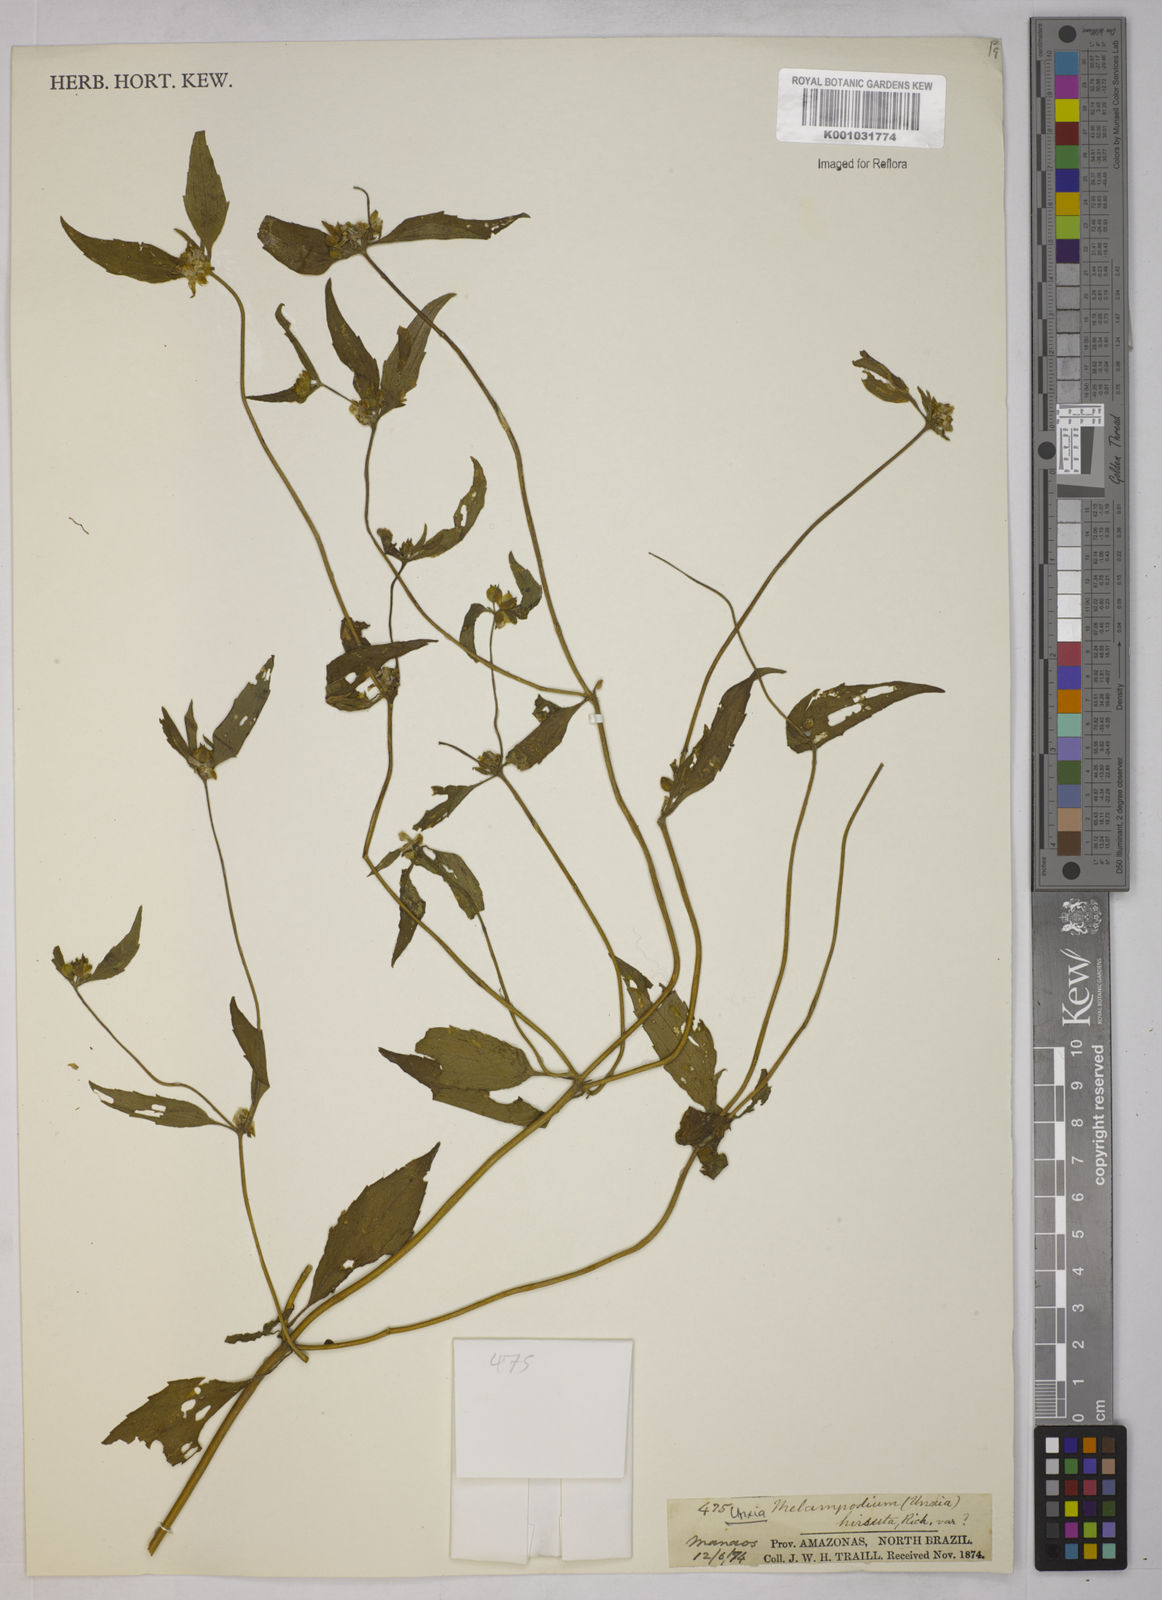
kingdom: Plantae
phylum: Tracheophyta
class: Magnoliopsida
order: Asterales
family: Asteraceae
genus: Unxia
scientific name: Unxia camphorata
